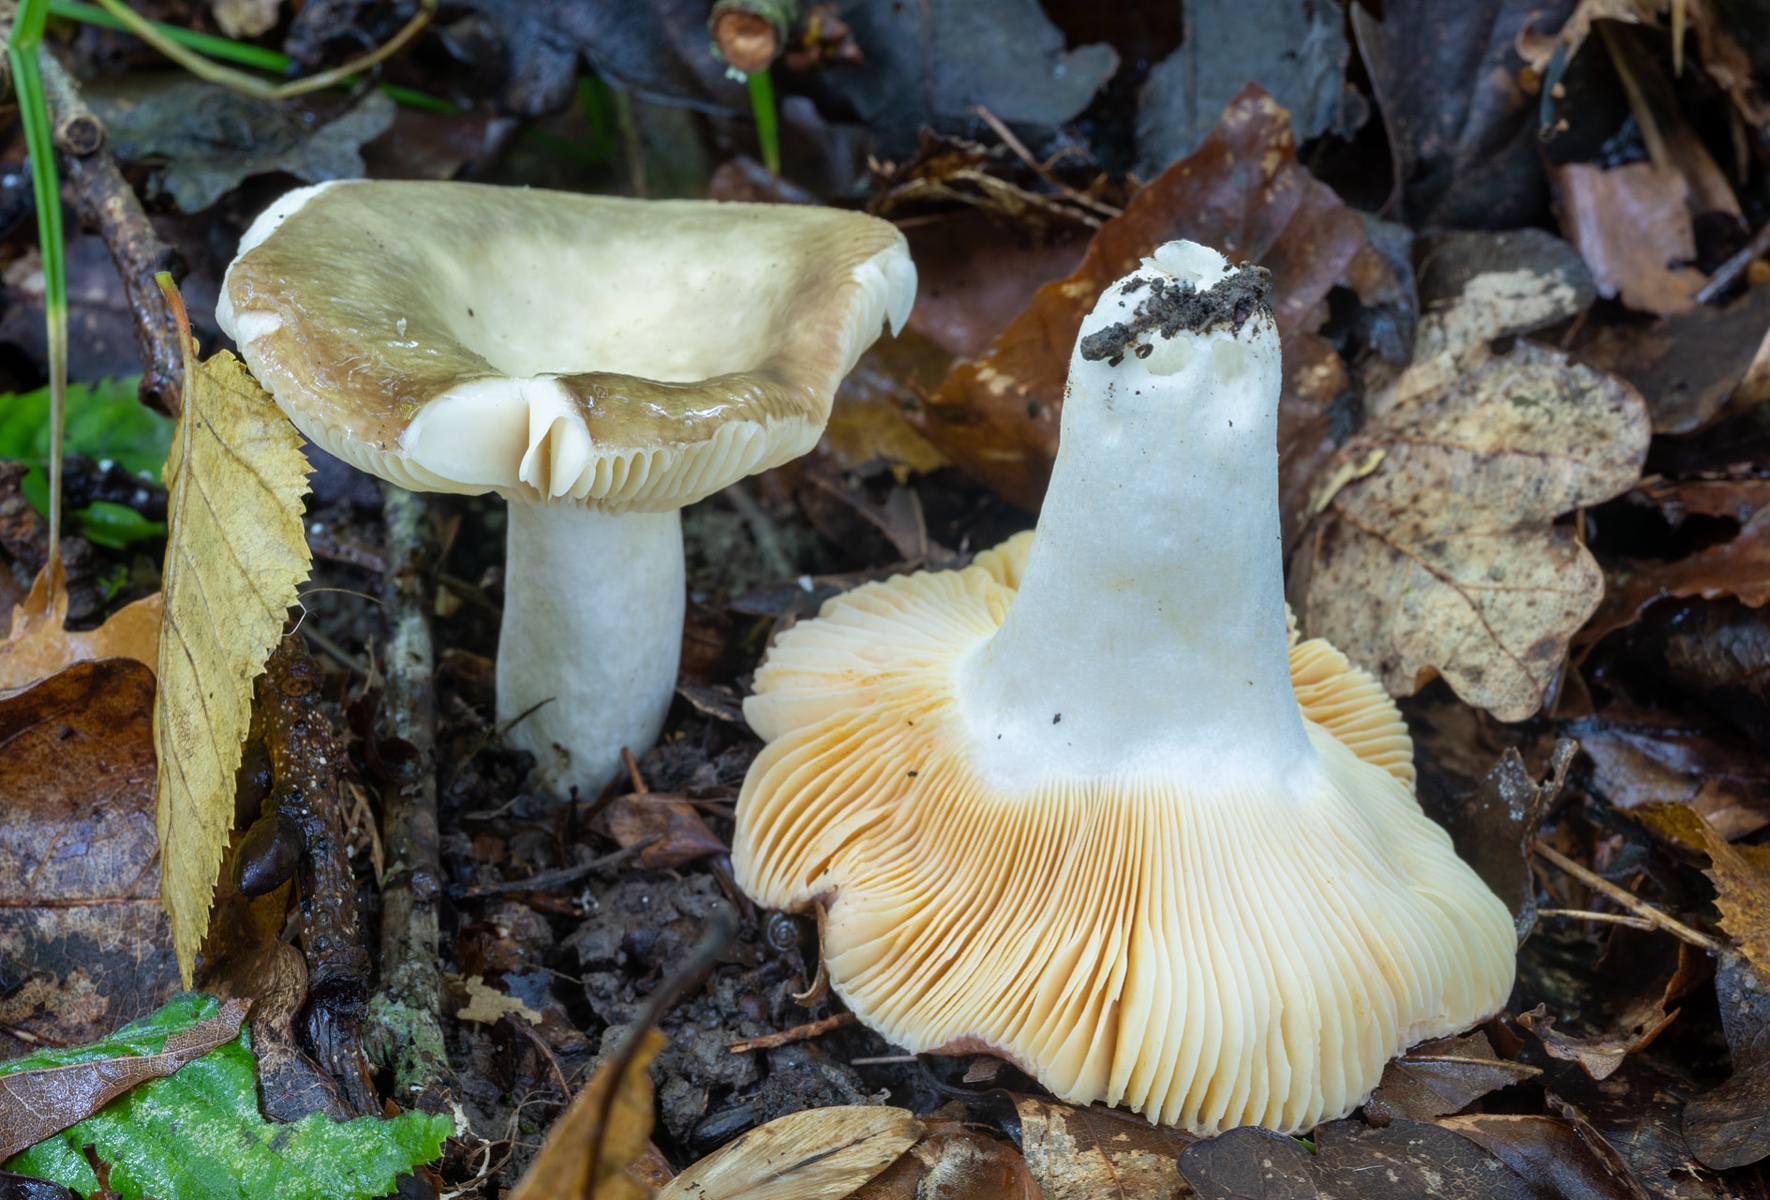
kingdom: Fungi
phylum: Basidiomycota
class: Agaricomycetes
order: Russulales
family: Russulaceae
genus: Russula
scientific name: Russula cuprea
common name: kanel-skørhat
